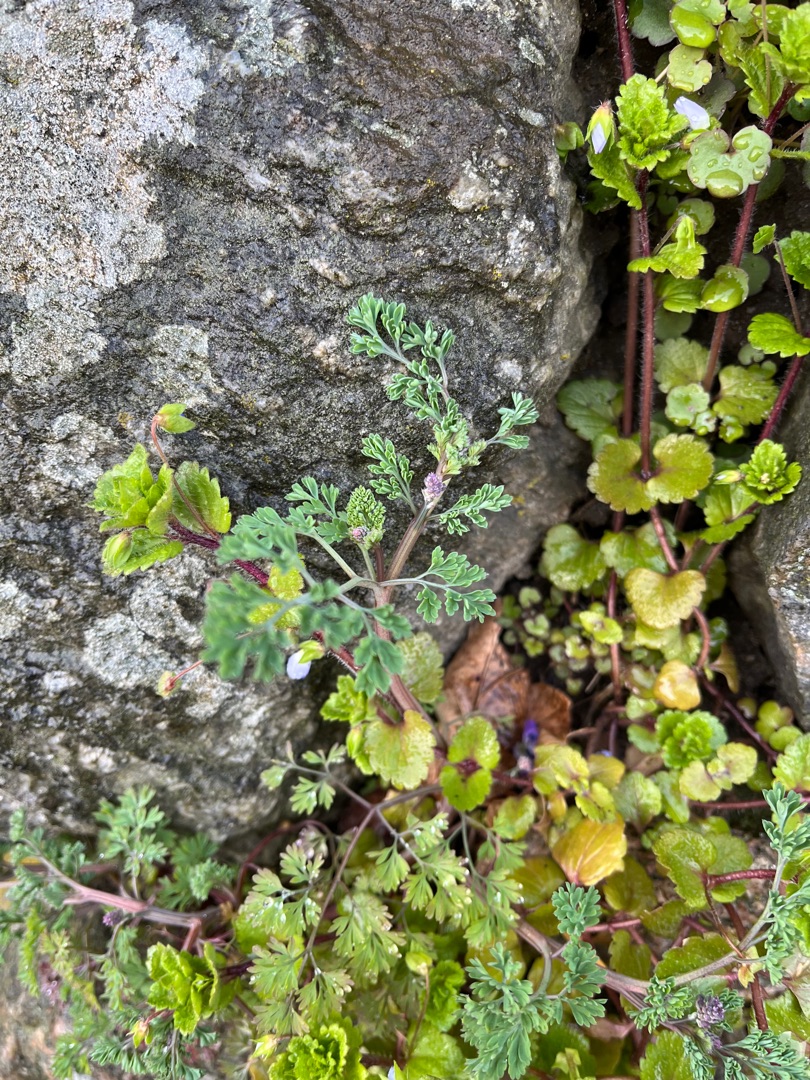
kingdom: Plantae
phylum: Tracheophyta
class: Magnoliopsida
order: Ranunculales
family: Papaveraceae
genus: Fumaria
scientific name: Fumaria officinalis
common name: Læge-jordrøg
